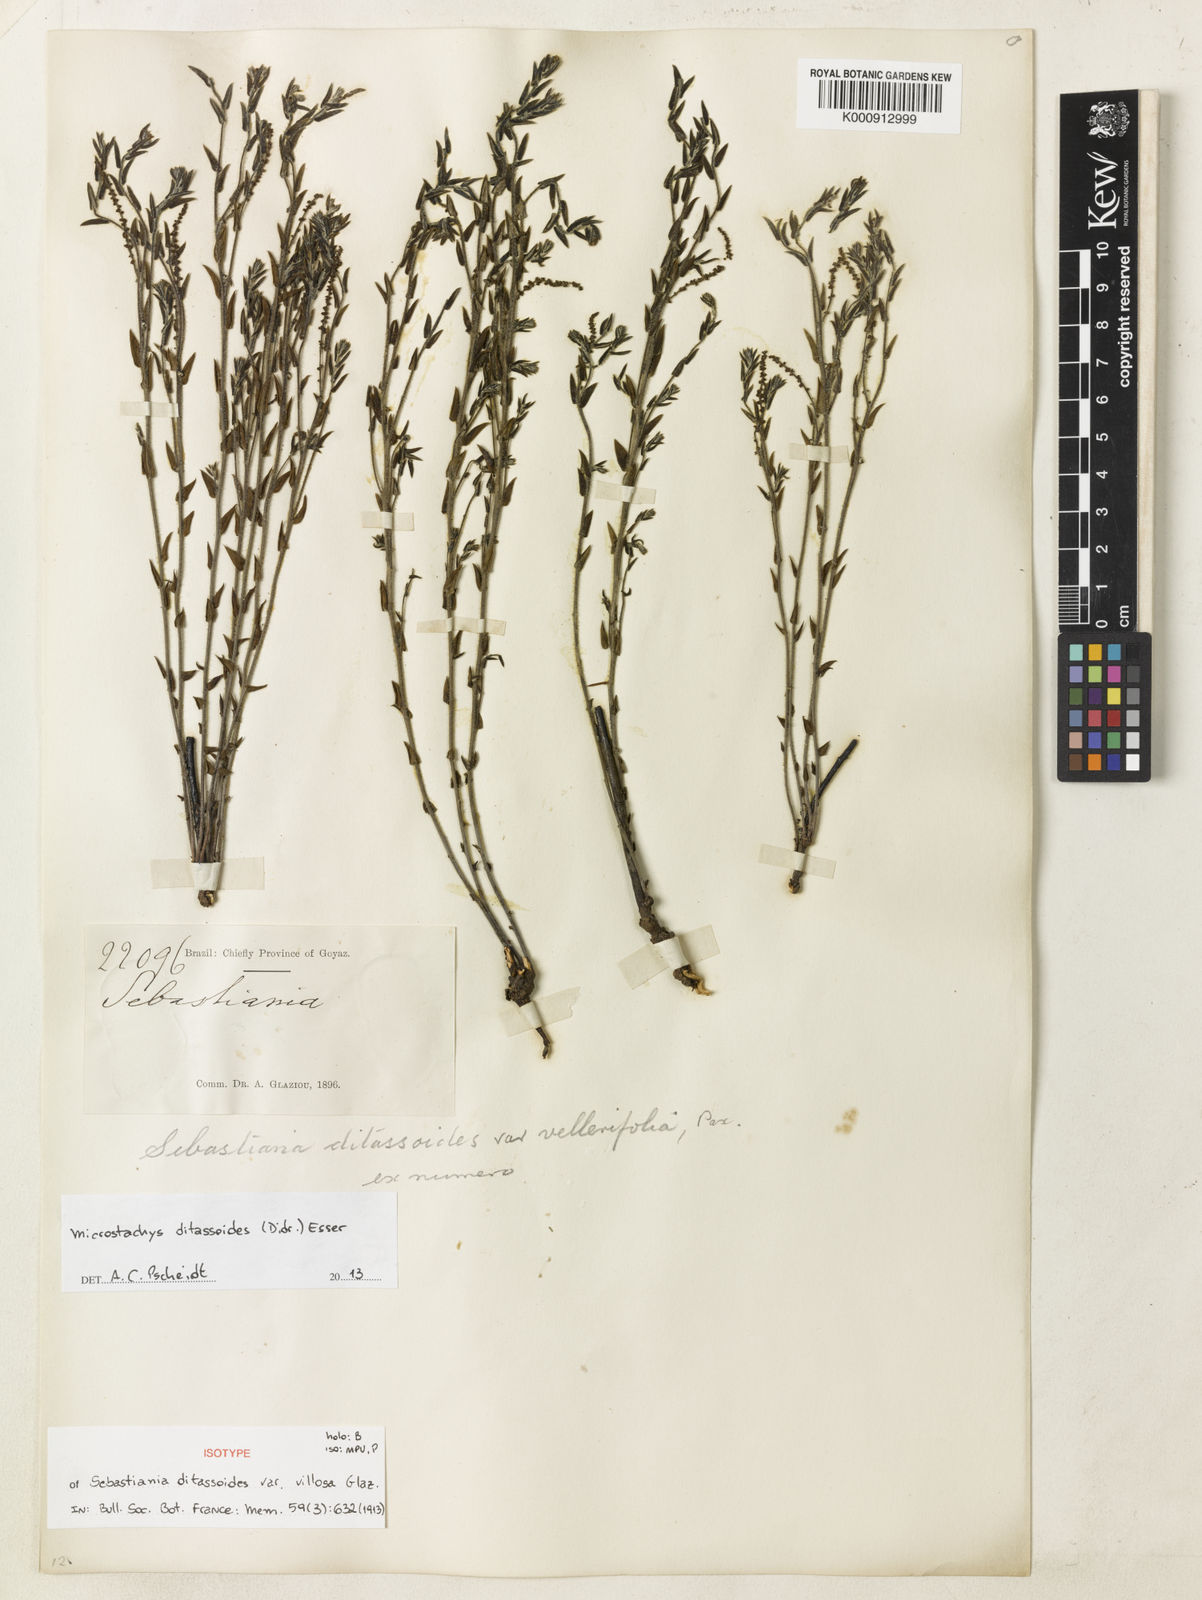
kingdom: Plantae
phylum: Tracheophyta
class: Magnoliopsida
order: Malpighiales
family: Euphorbiaceae
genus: Microstachys
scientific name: Microstachys ditassoides
